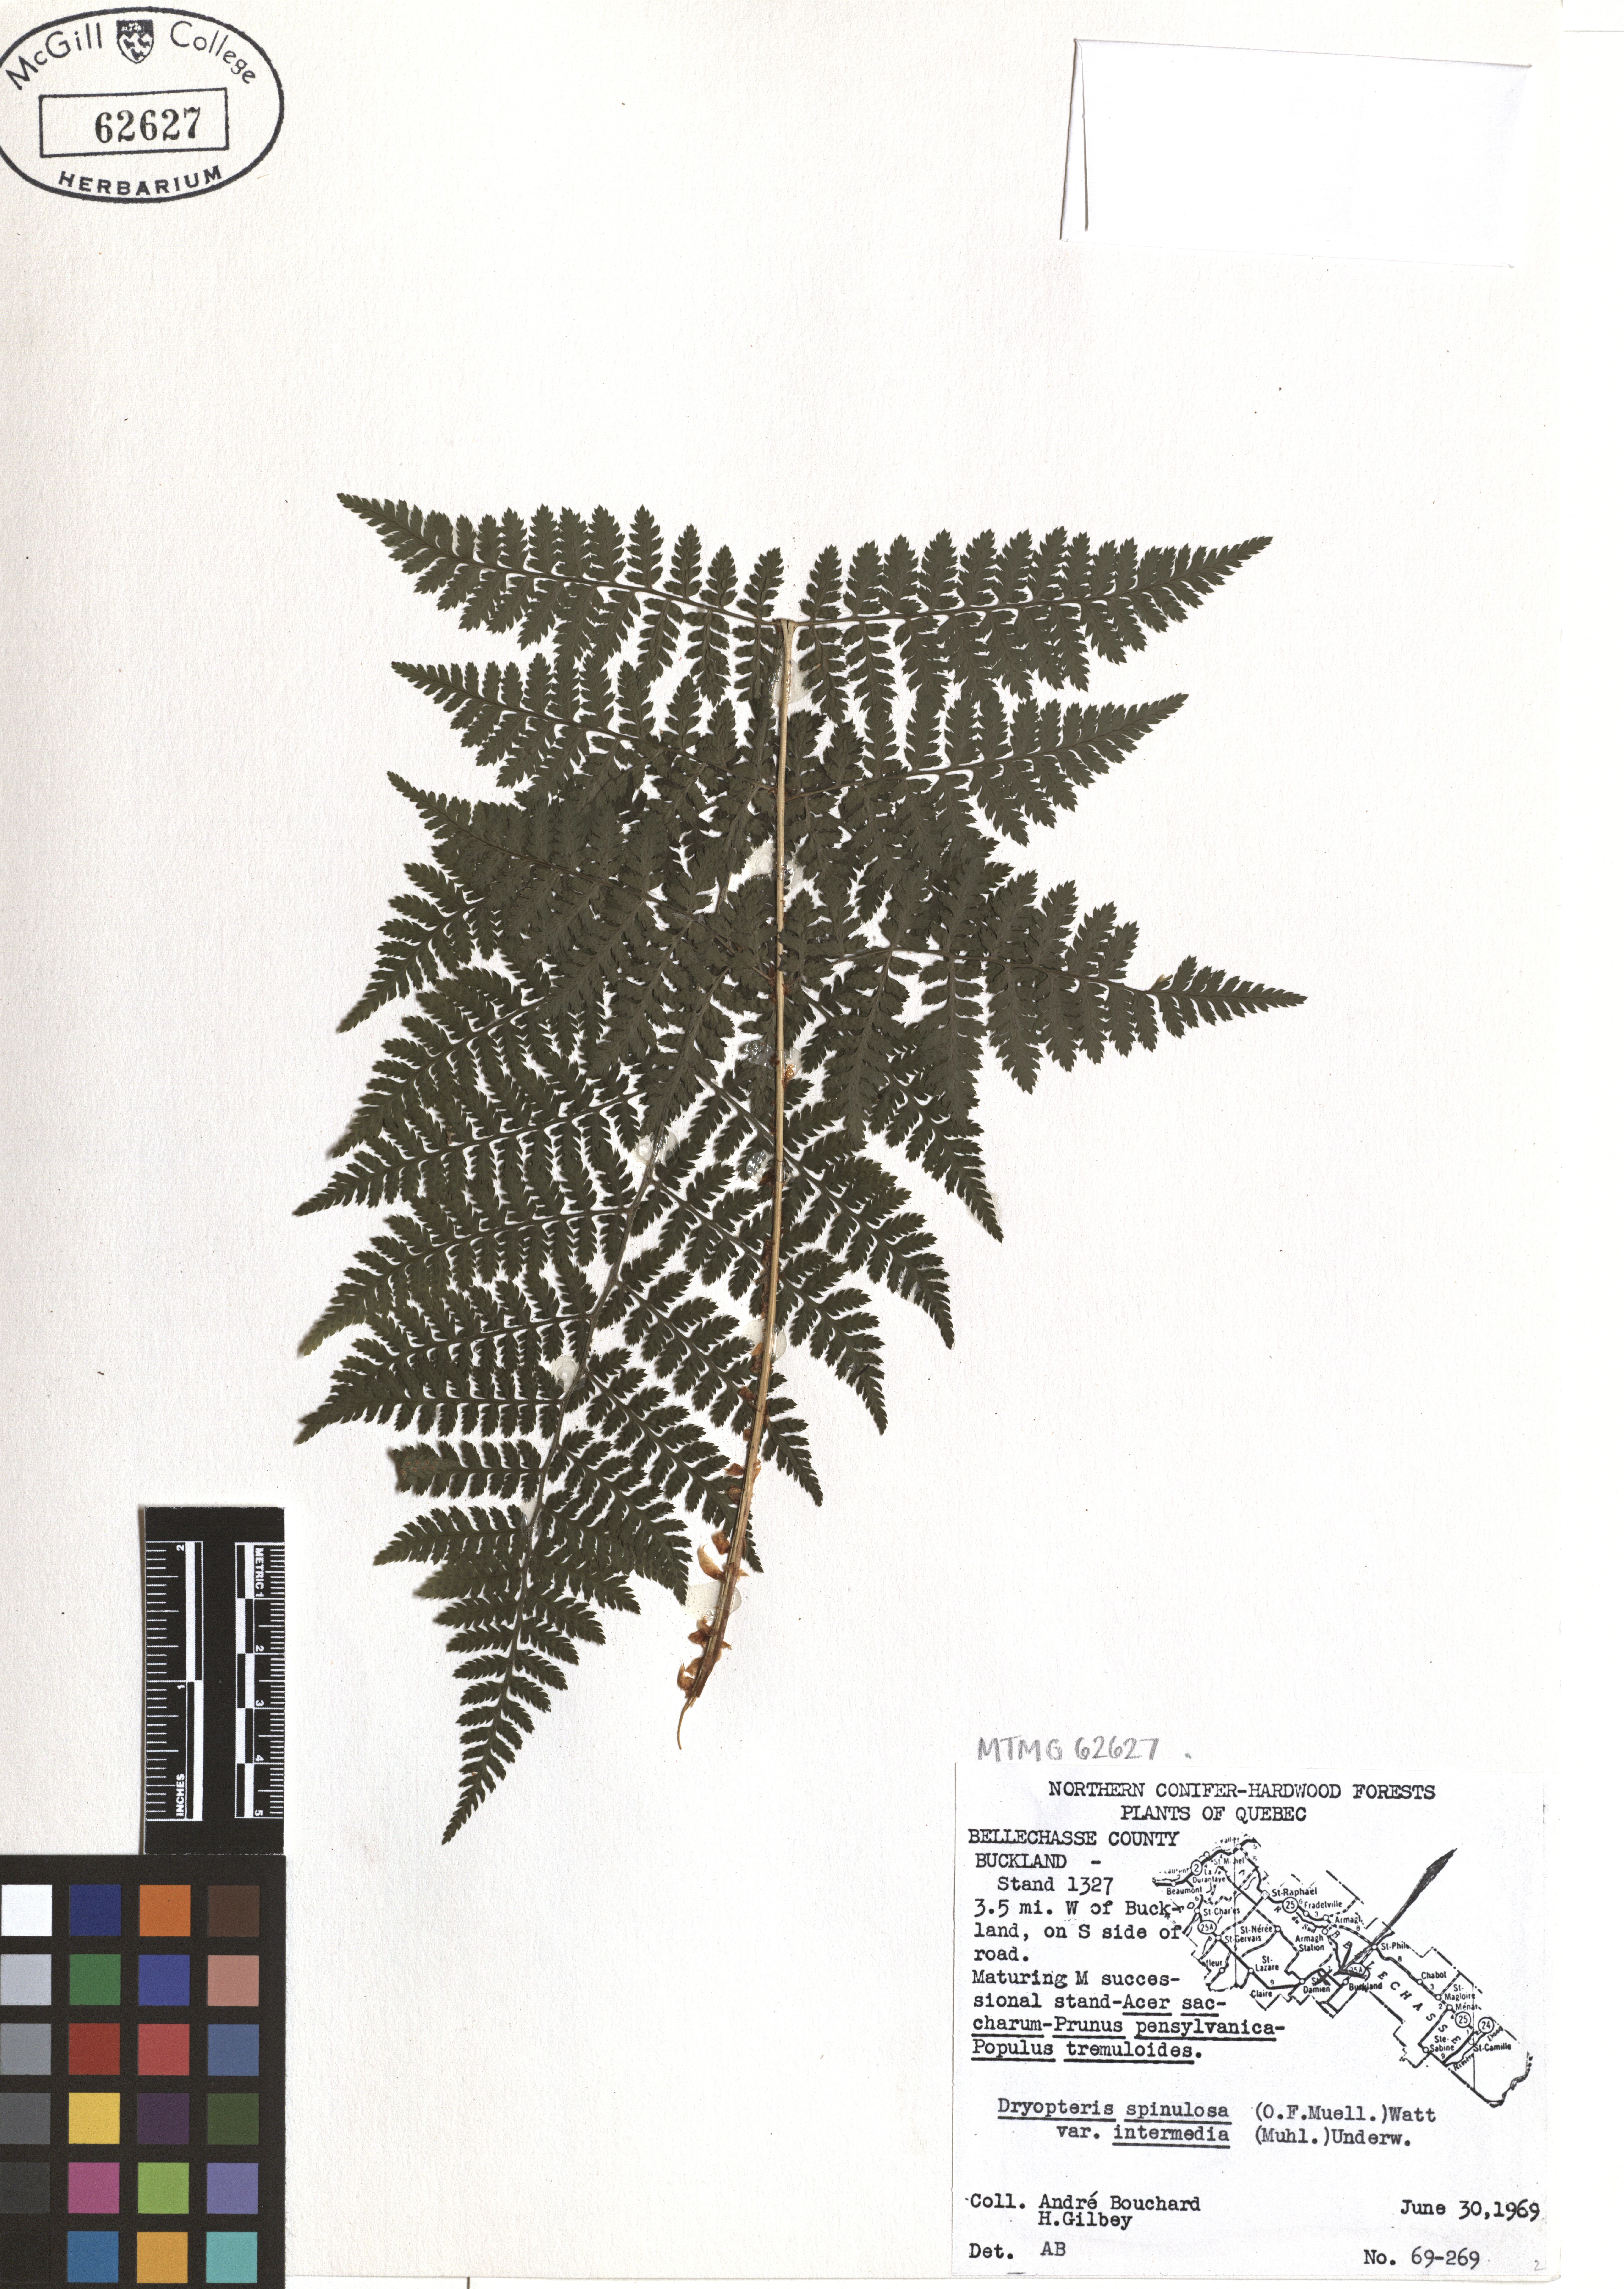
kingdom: Plantae
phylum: Tracheophyta
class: Polypodiopsida
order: Polypodiales
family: Dryopteridaceae
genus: Dryopteris
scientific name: Dryopteris intermedia
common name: Evergreen wood fern
